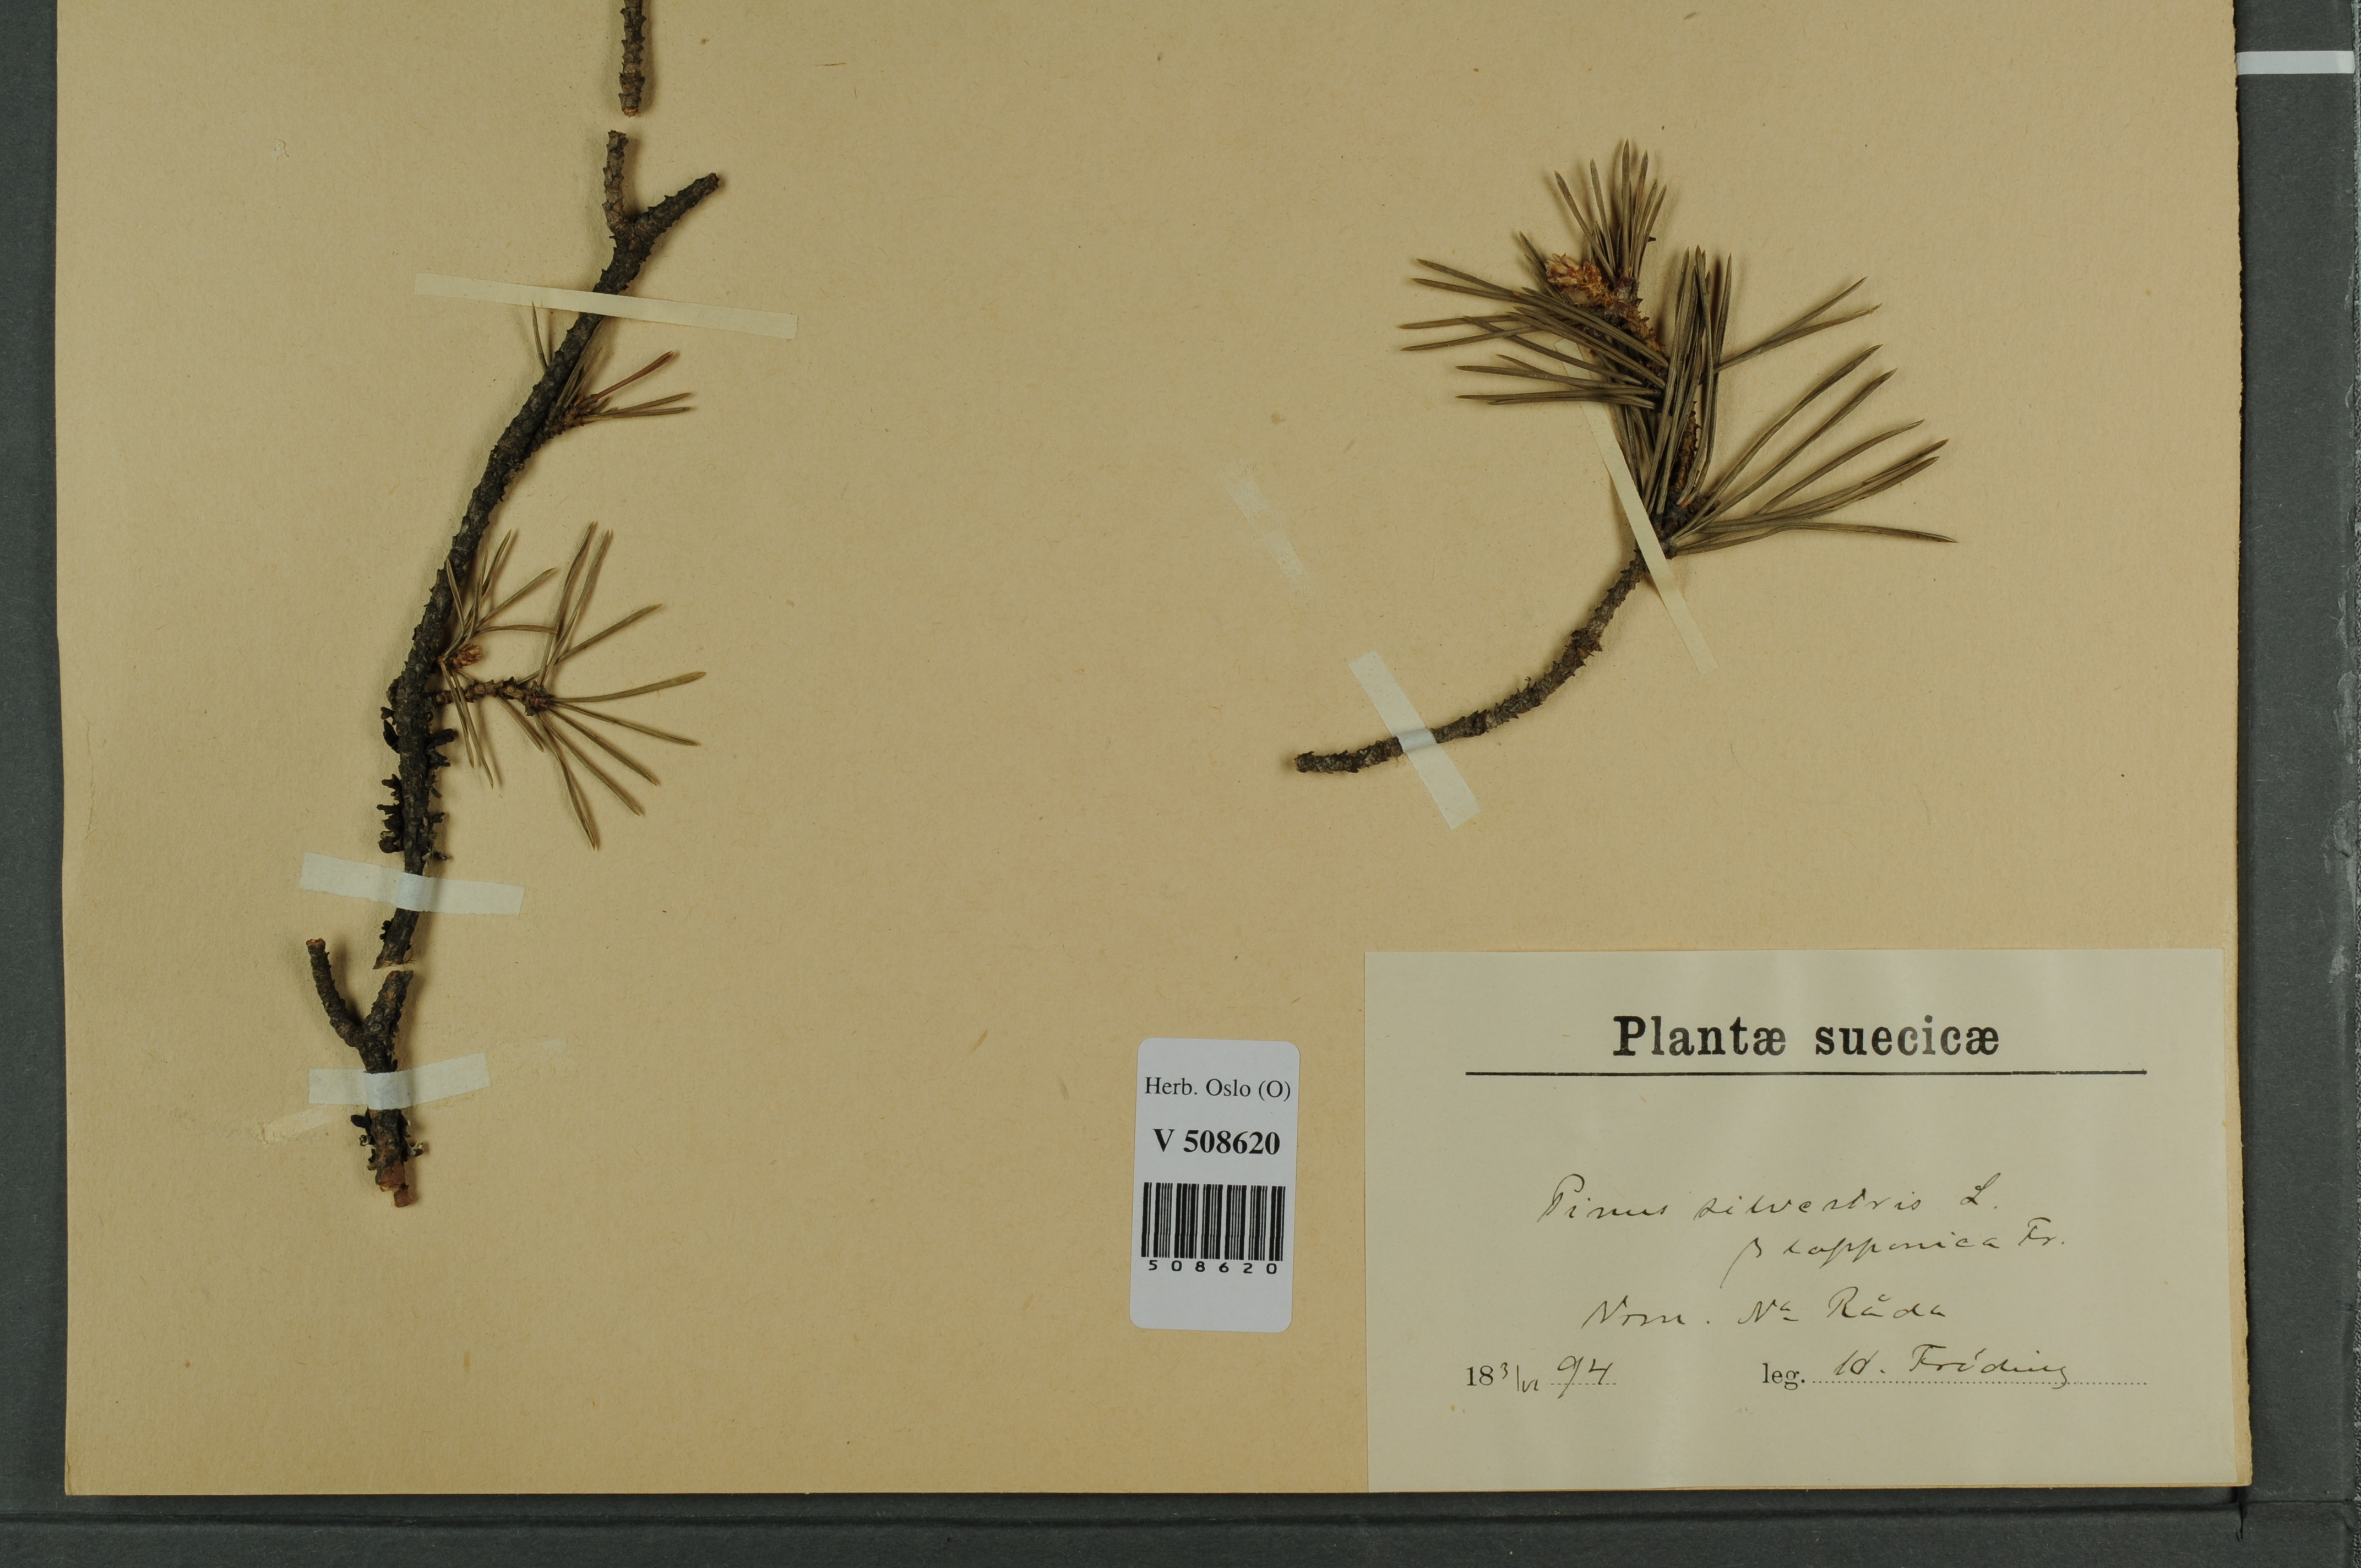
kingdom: Plantae
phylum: Tracheophyta
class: Pinopsida
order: Pinales
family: Pinaceae
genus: Pinus
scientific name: Pinus sylvestris
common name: Scots pine
